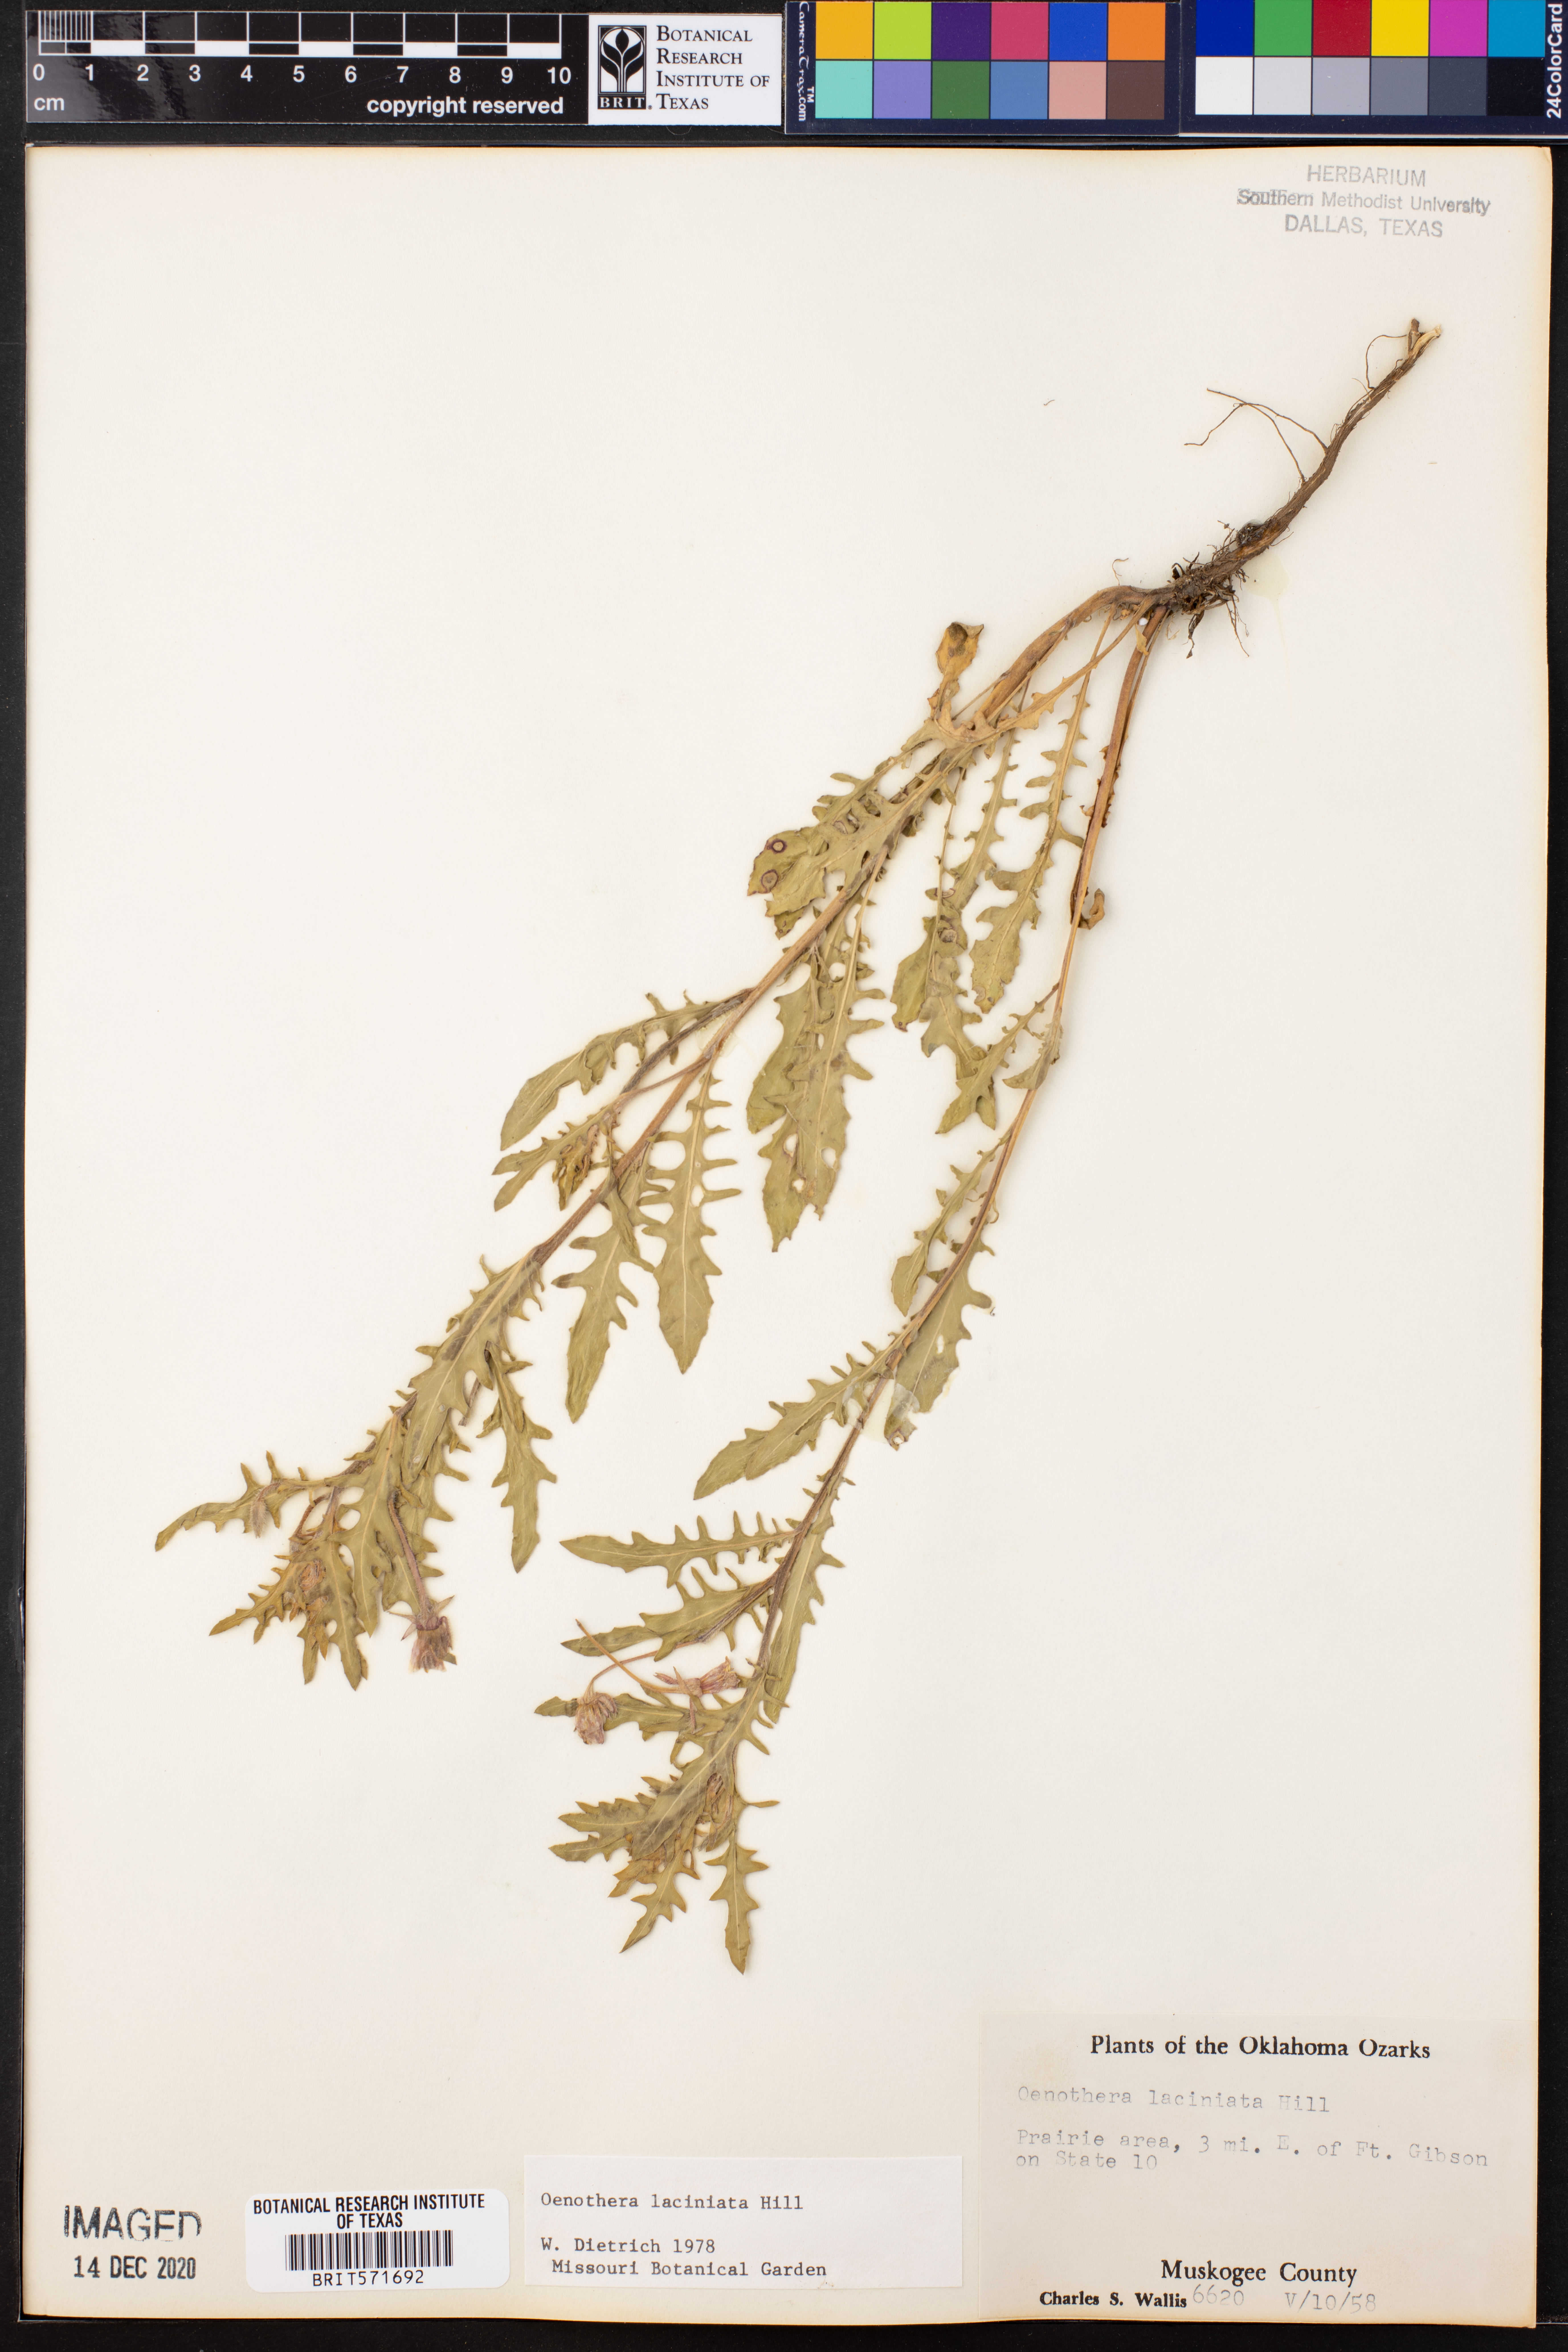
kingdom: Plantae
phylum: Tracheophyta
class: Magnoliopsida
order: Myrtales
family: Onagraceae
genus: Oenothera
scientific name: Oenothera laciniata
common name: Cut-leaved evening-primrose
